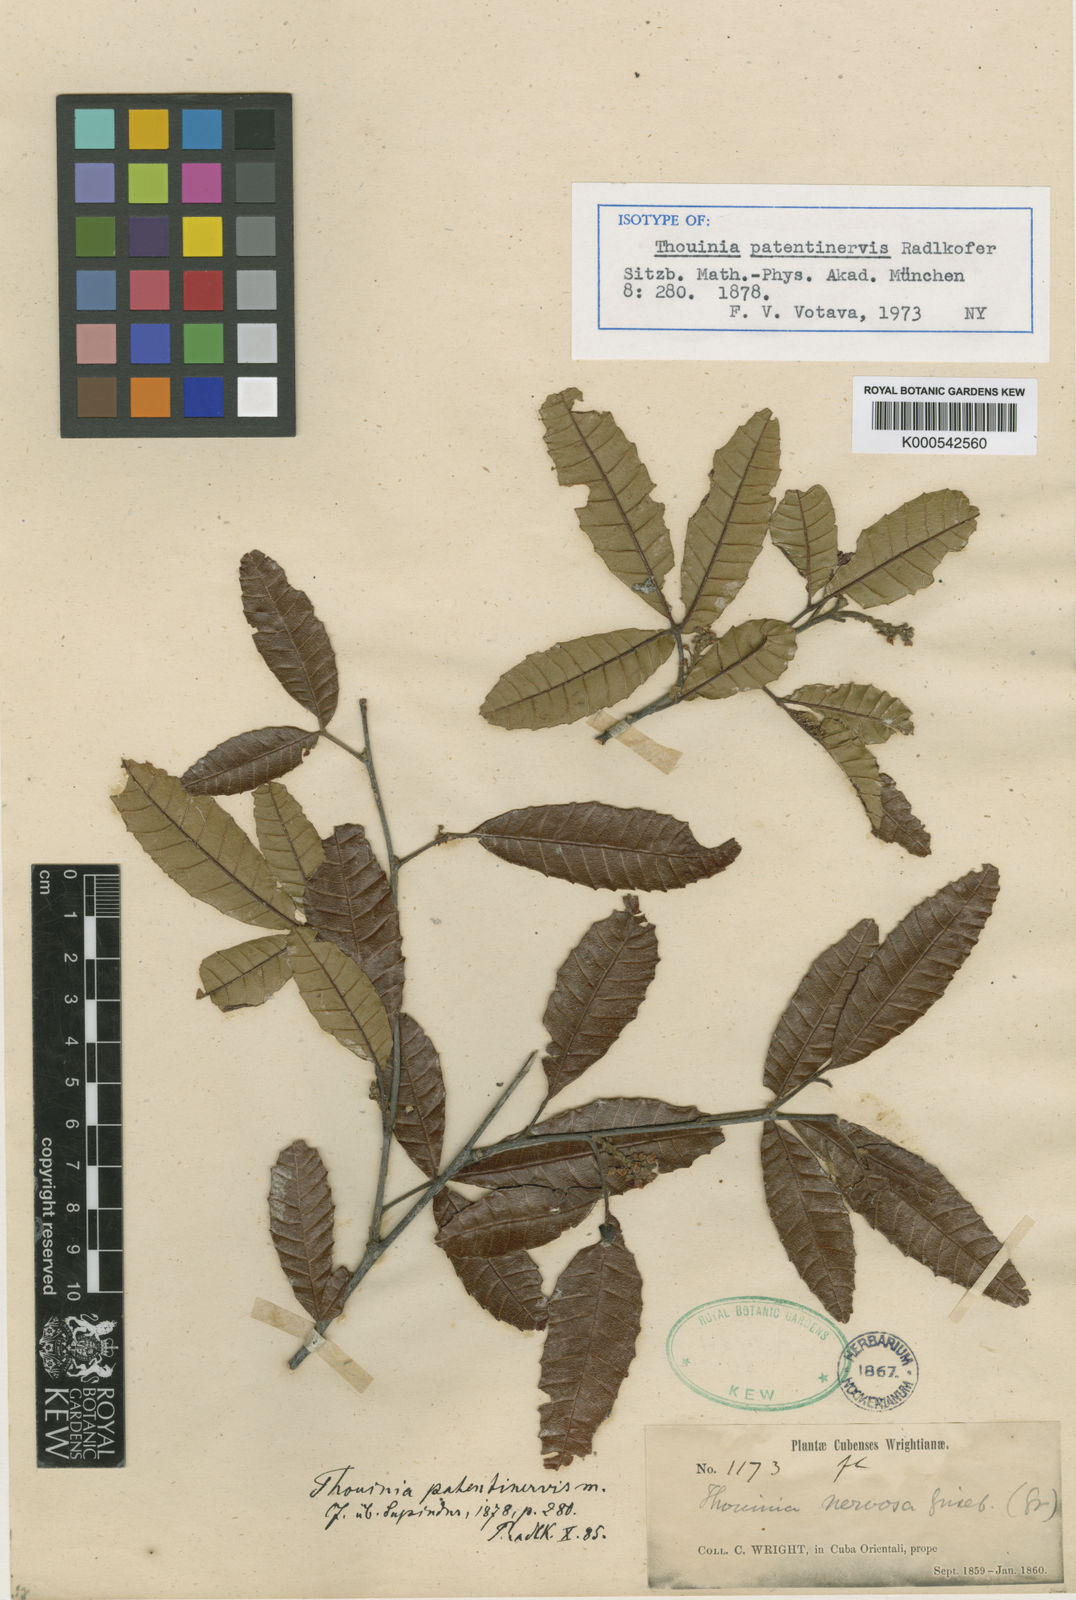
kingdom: Plantae
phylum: Tracheophyta
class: Magnoliopsida
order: Sapindales
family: Sapindaceae
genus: Thouinia
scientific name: Thouinia patentinervis
